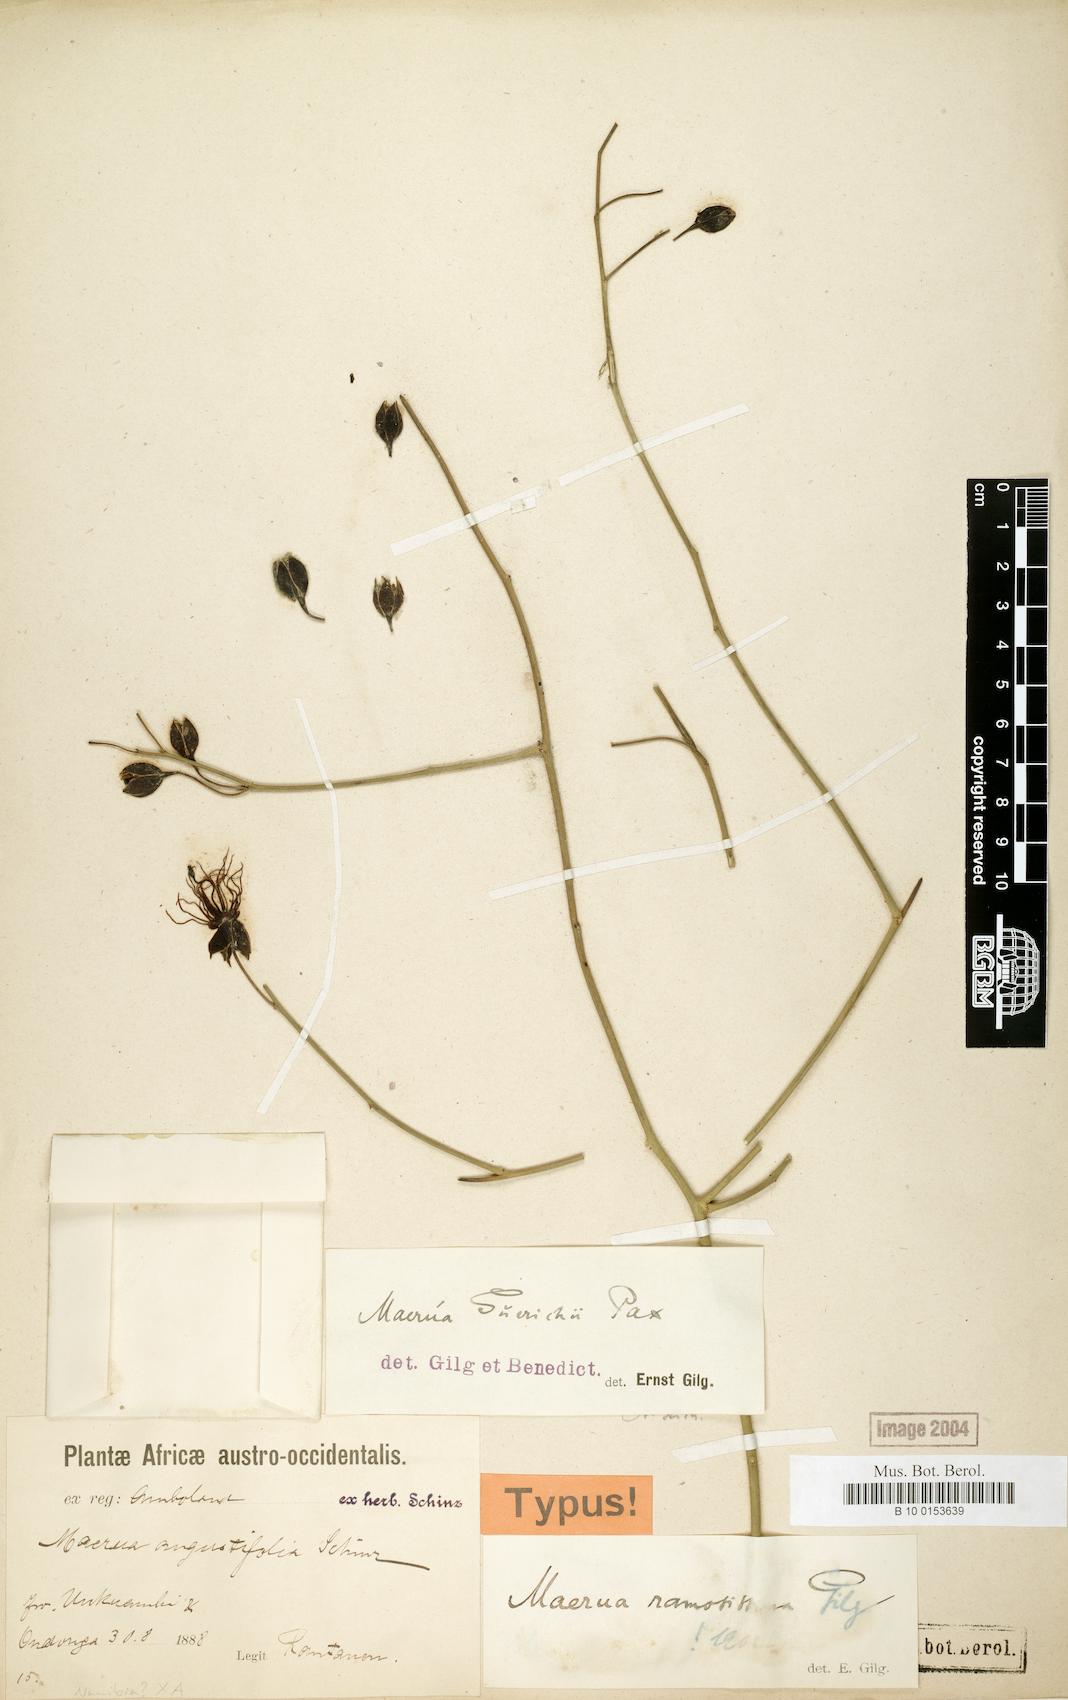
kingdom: Plantae
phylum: Tracheophyta
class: Magnoliopsida
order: Brassicales
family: Capparaceae
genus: Maerua
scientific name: Maerua juncea
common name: Rough-skinned bush cherry
